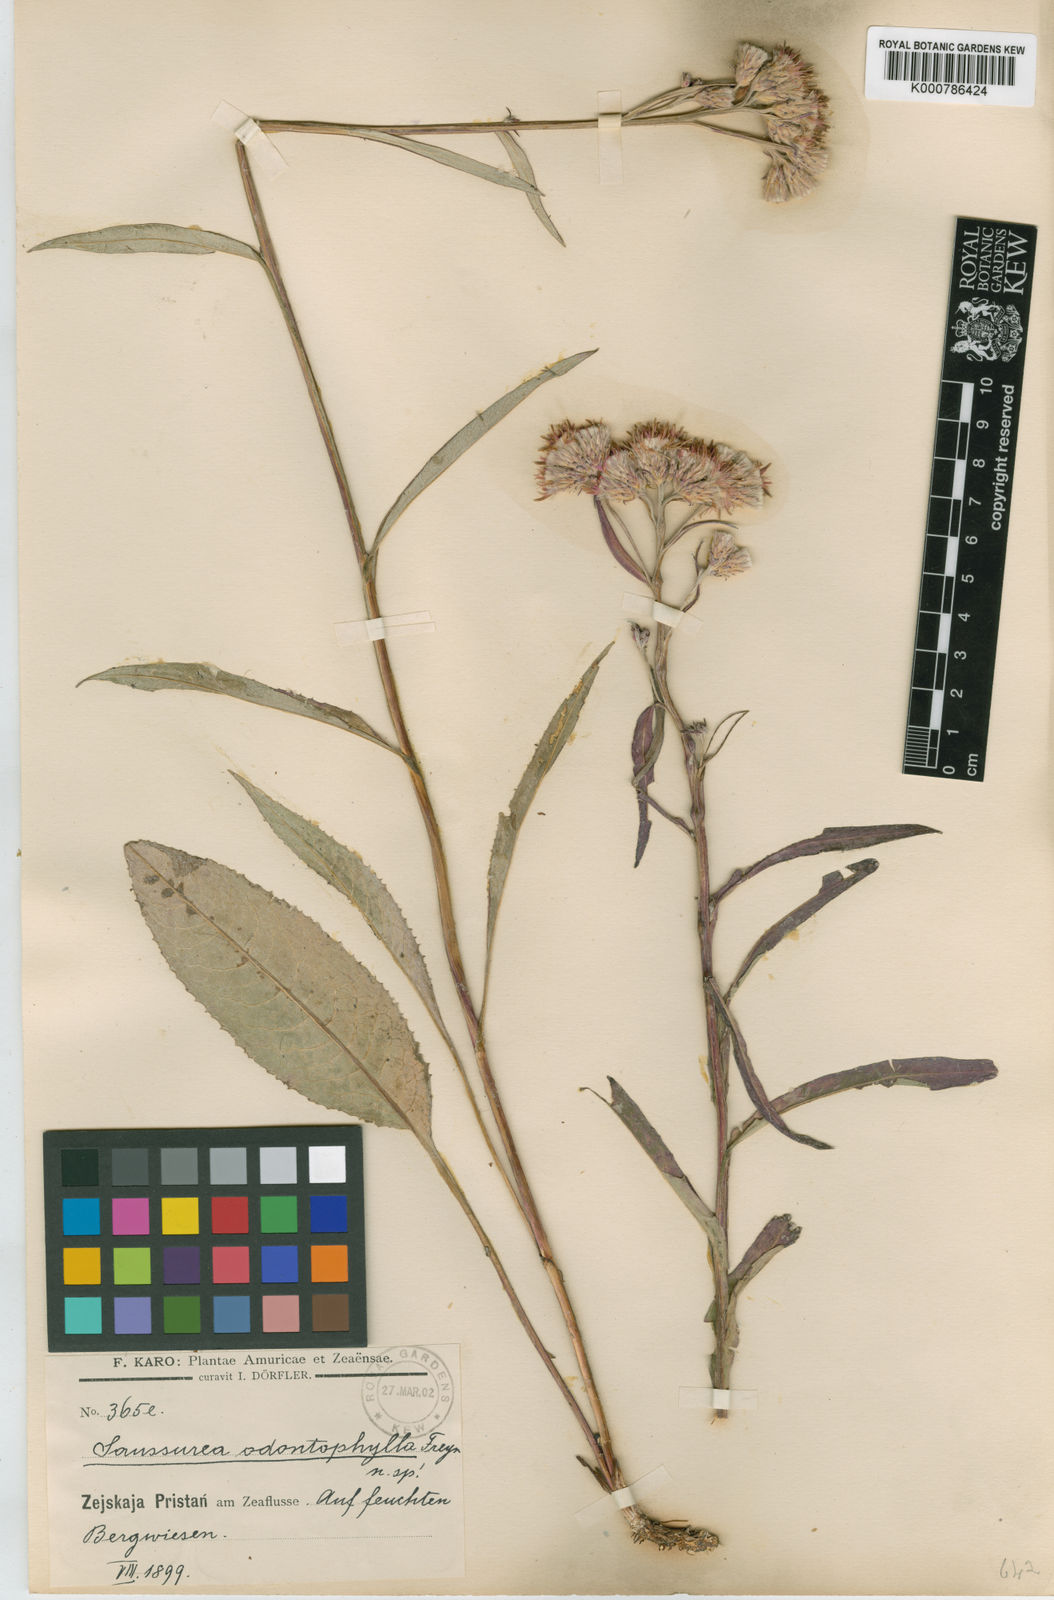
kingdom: Plantae
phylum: Tracheophyta
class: Magnoliopsida
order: Asterales
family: Asteraceae
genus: Saussurea
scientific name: Saussurea
